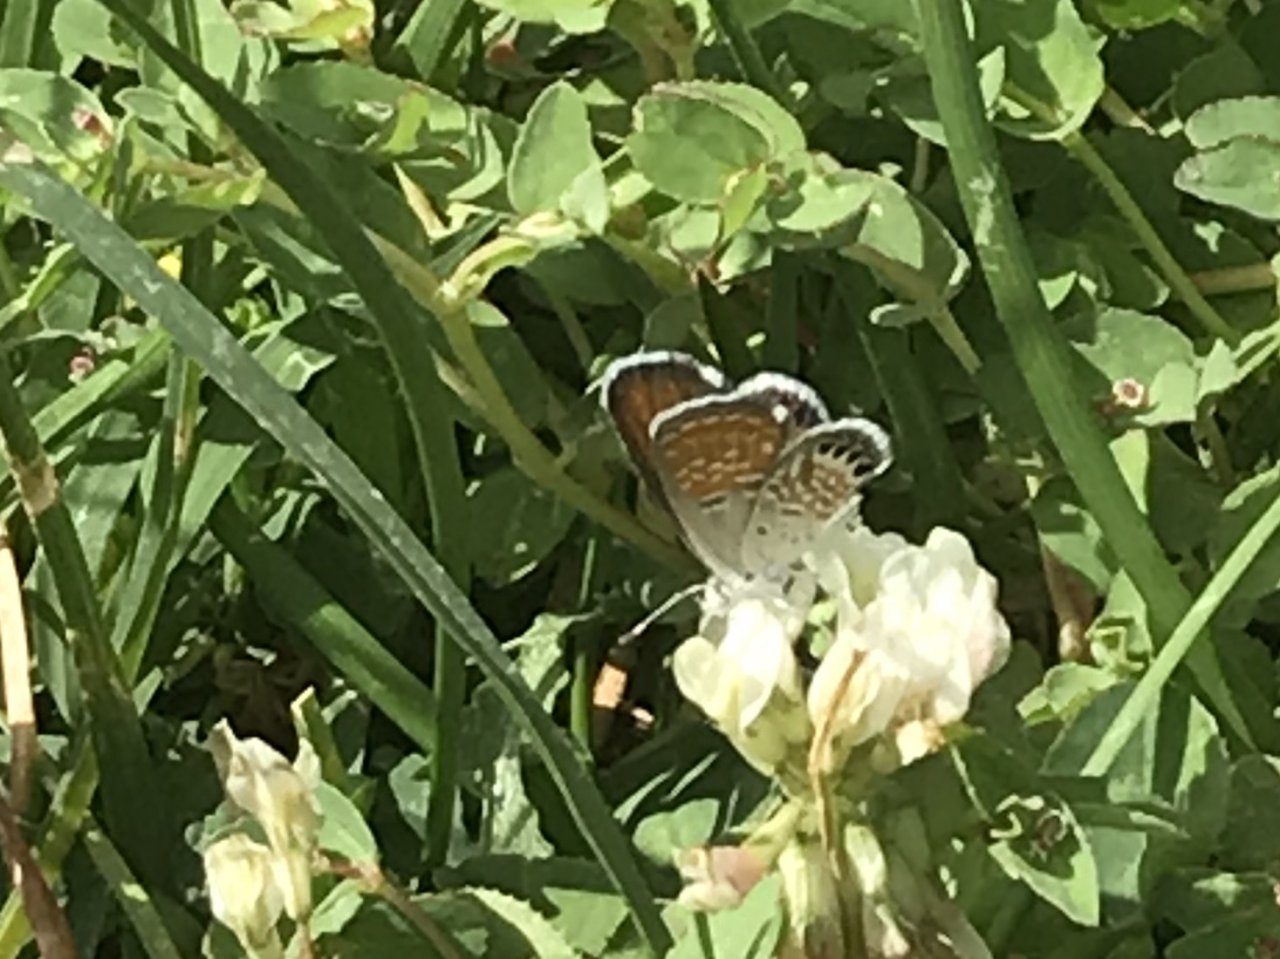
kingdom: Animalia
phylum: Arthropoda
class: Insecta
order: Lepidoptera
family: Lycaenidae
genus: Brephidium
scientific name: Brephidium exilis
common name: Western Pygmy-Blue
